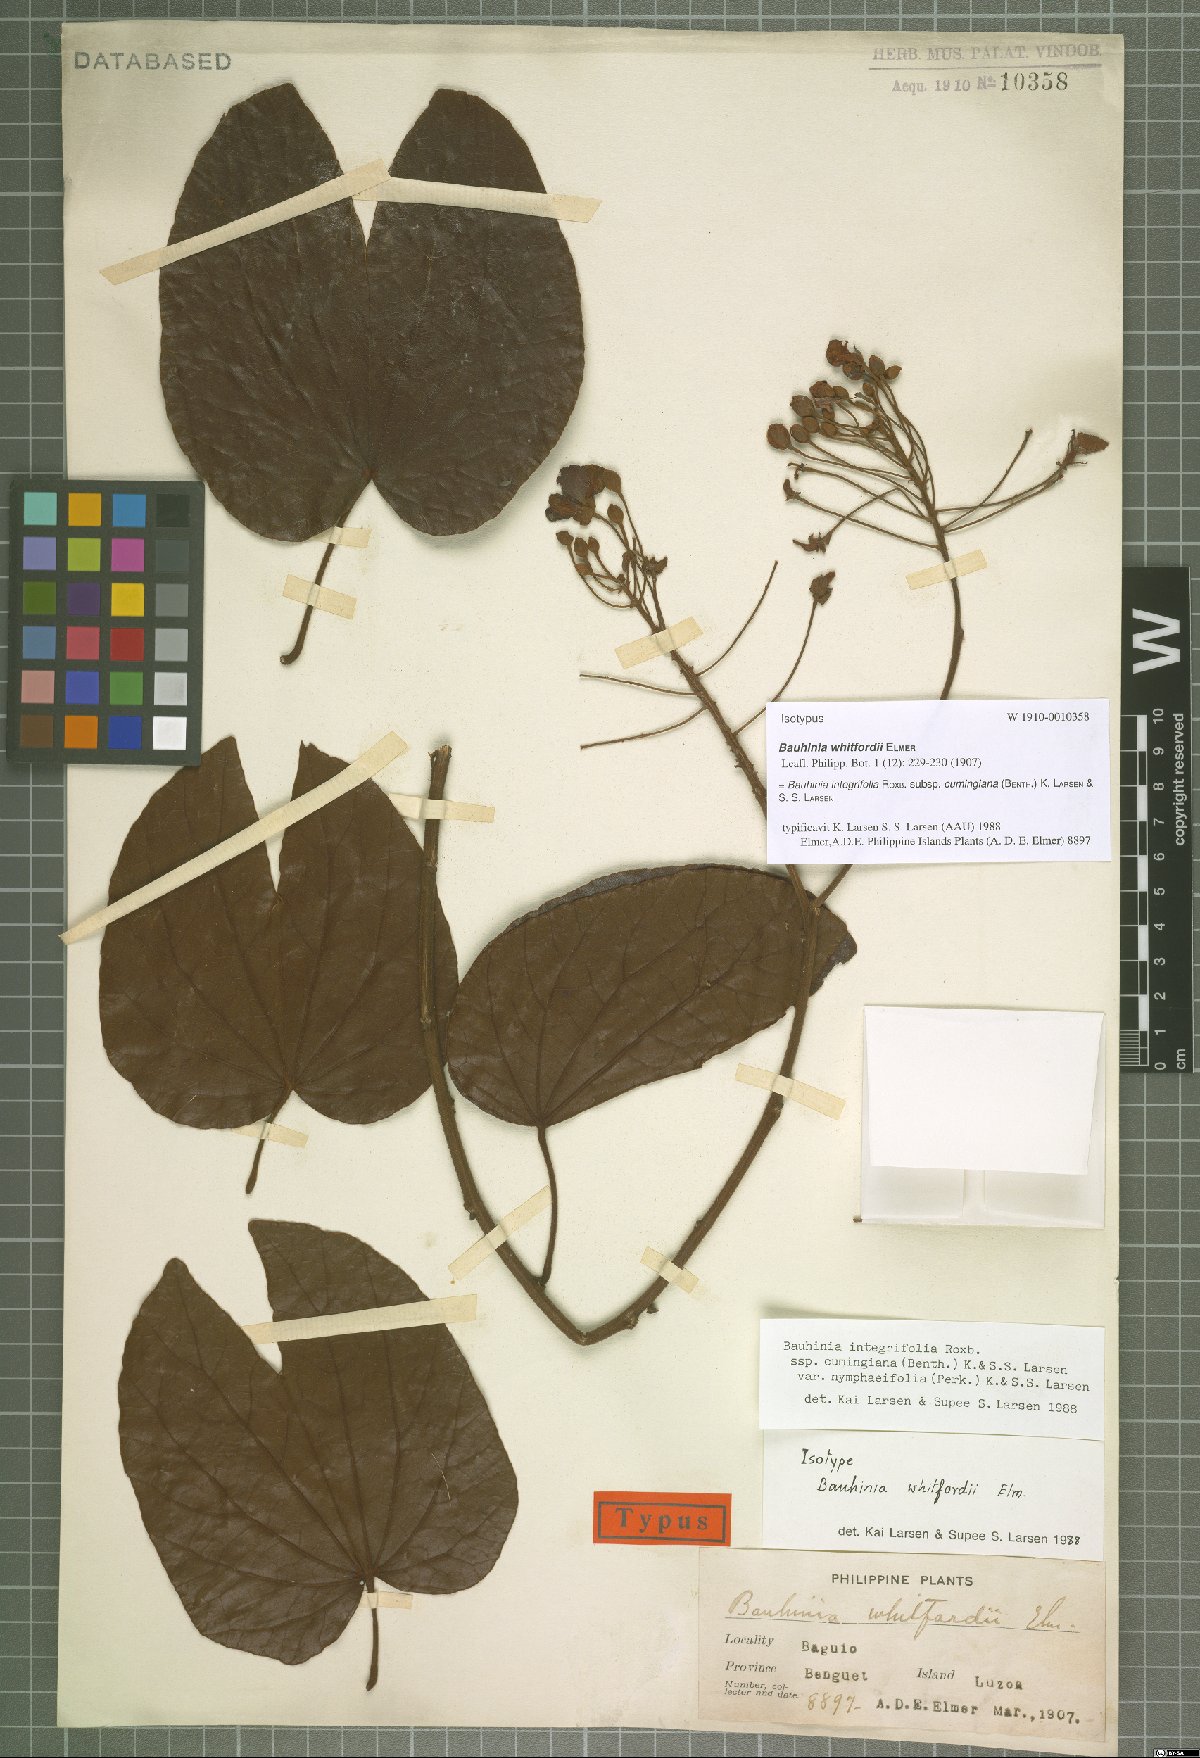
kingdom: Plantae
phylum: Tracheophyta
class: Magnoliopsida
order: Fabales
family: Fabaceae
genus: Phanera
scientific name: Phanera integrifolia
